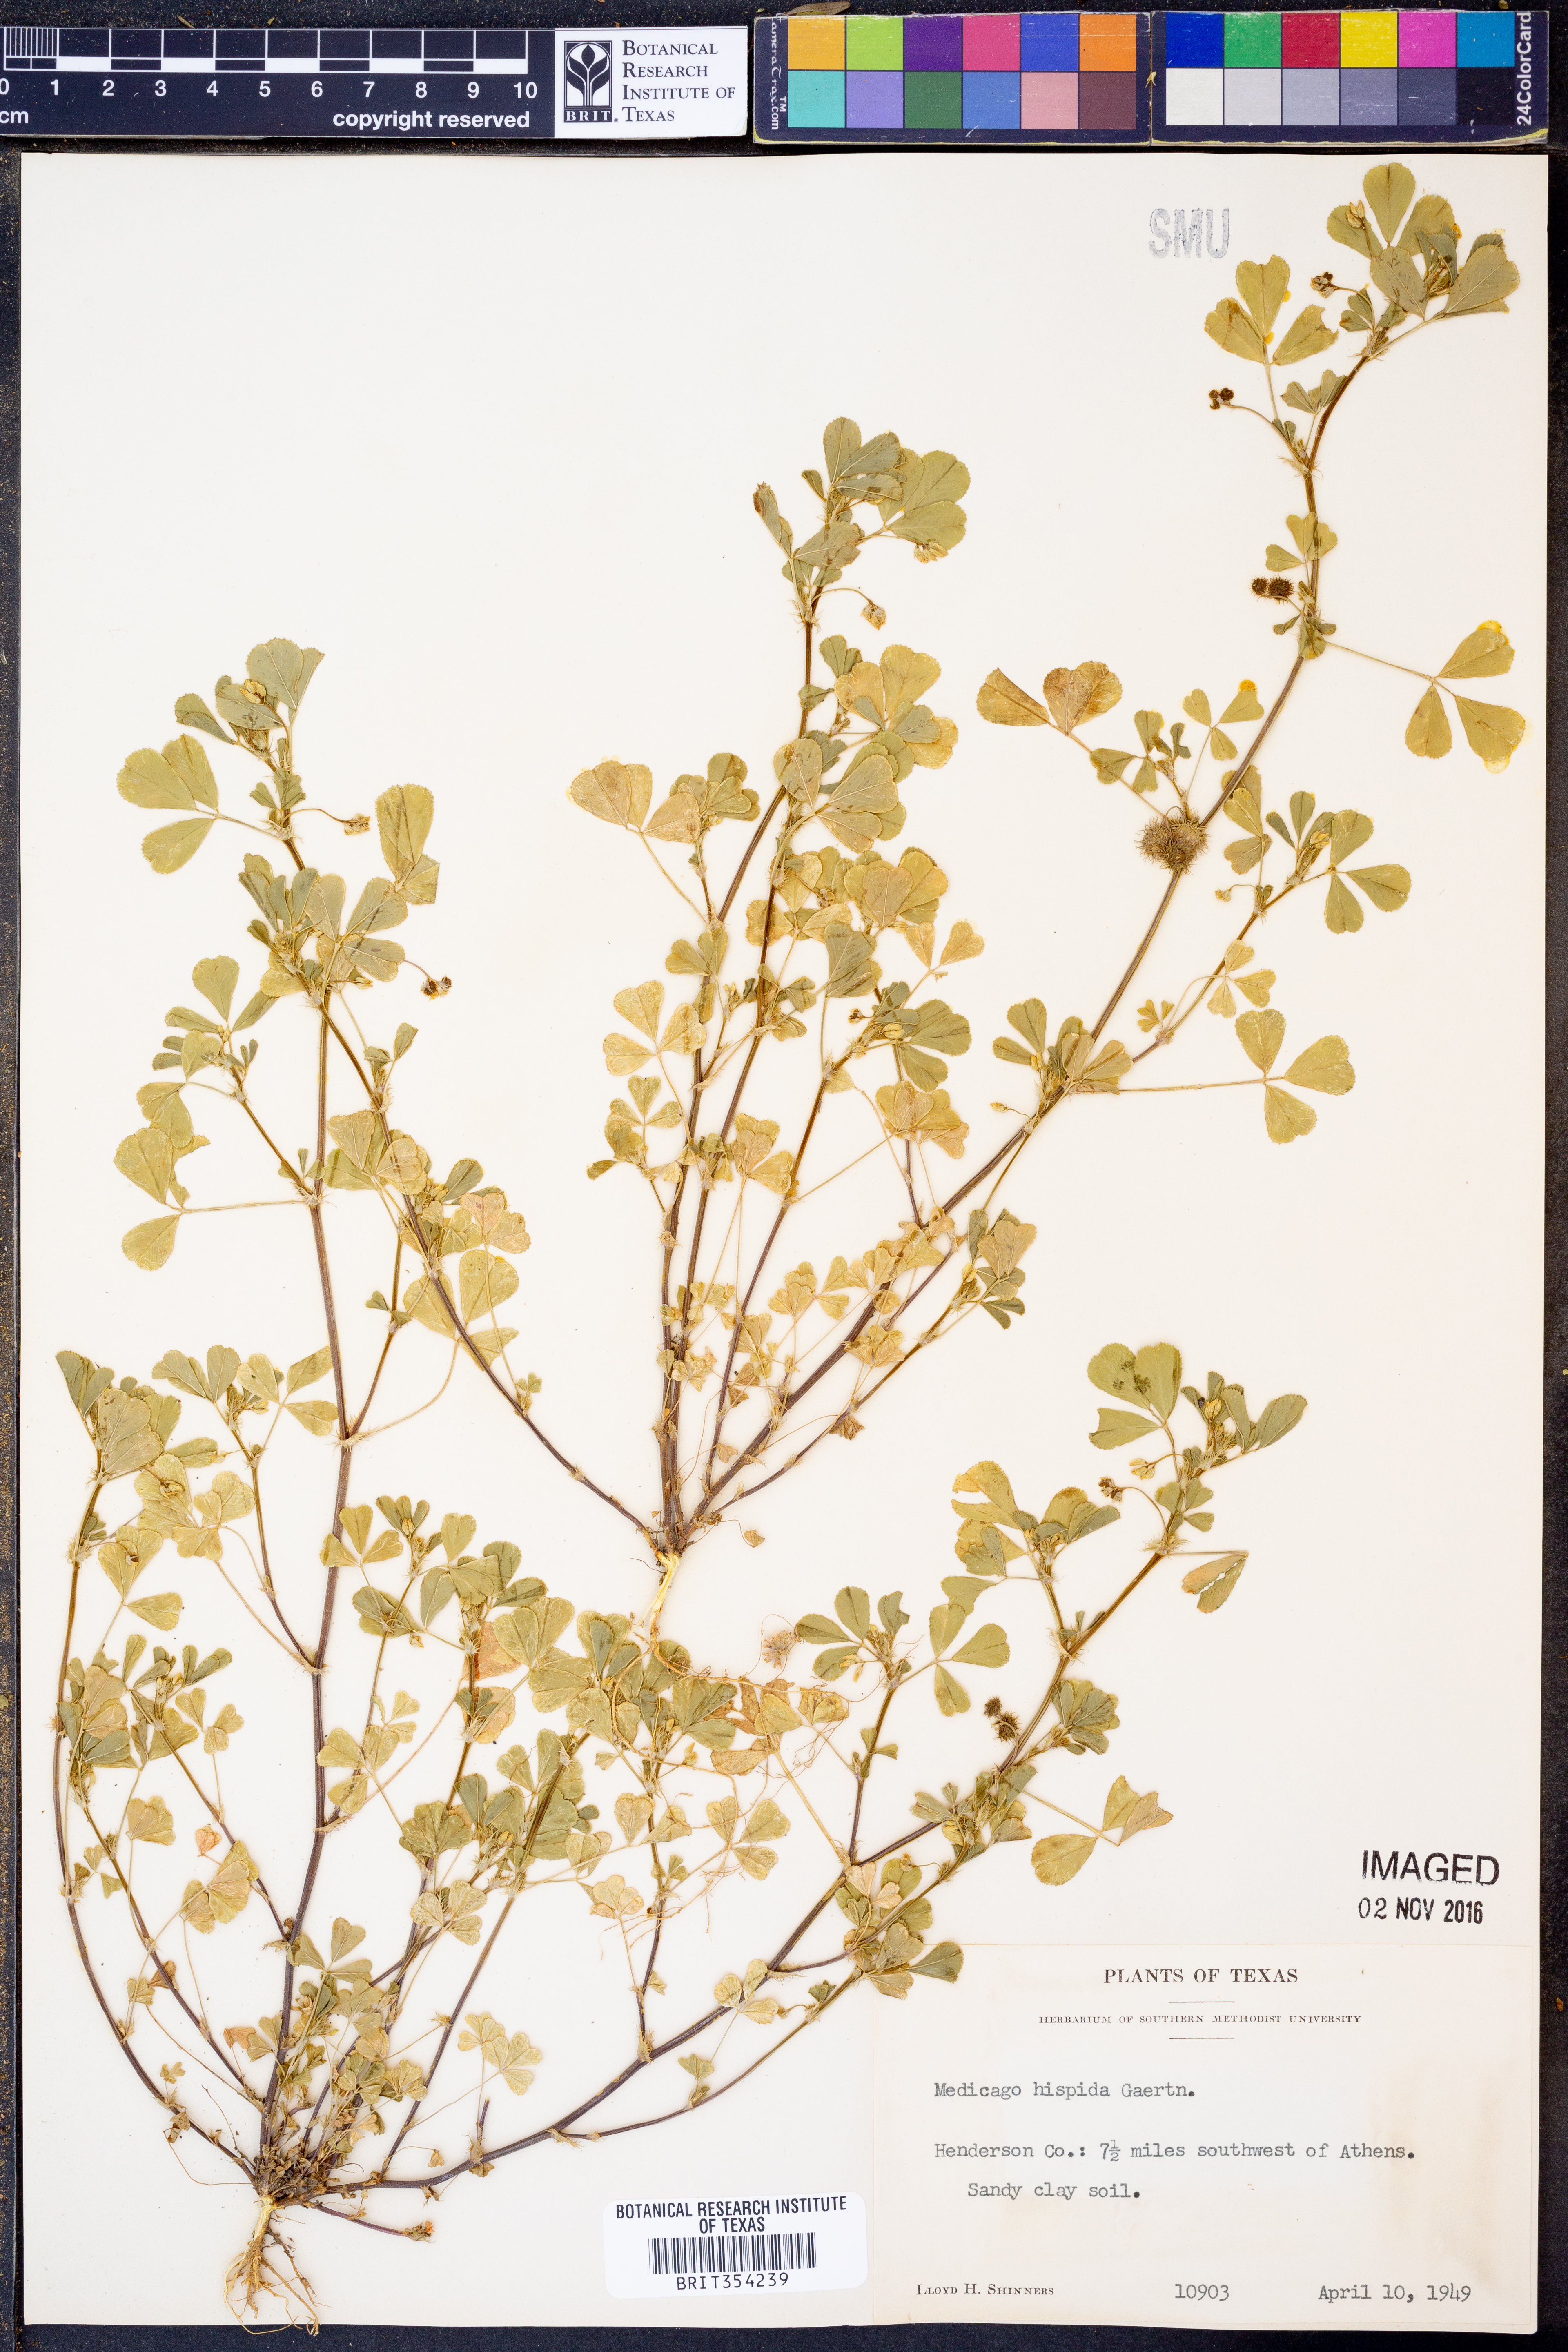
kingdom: Plantae
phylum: Tracheophyta
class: Magnoliopsida
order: Fabales
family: Fabaceae
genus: Medicago
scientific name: Medicago polymorpha
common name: Burclover
